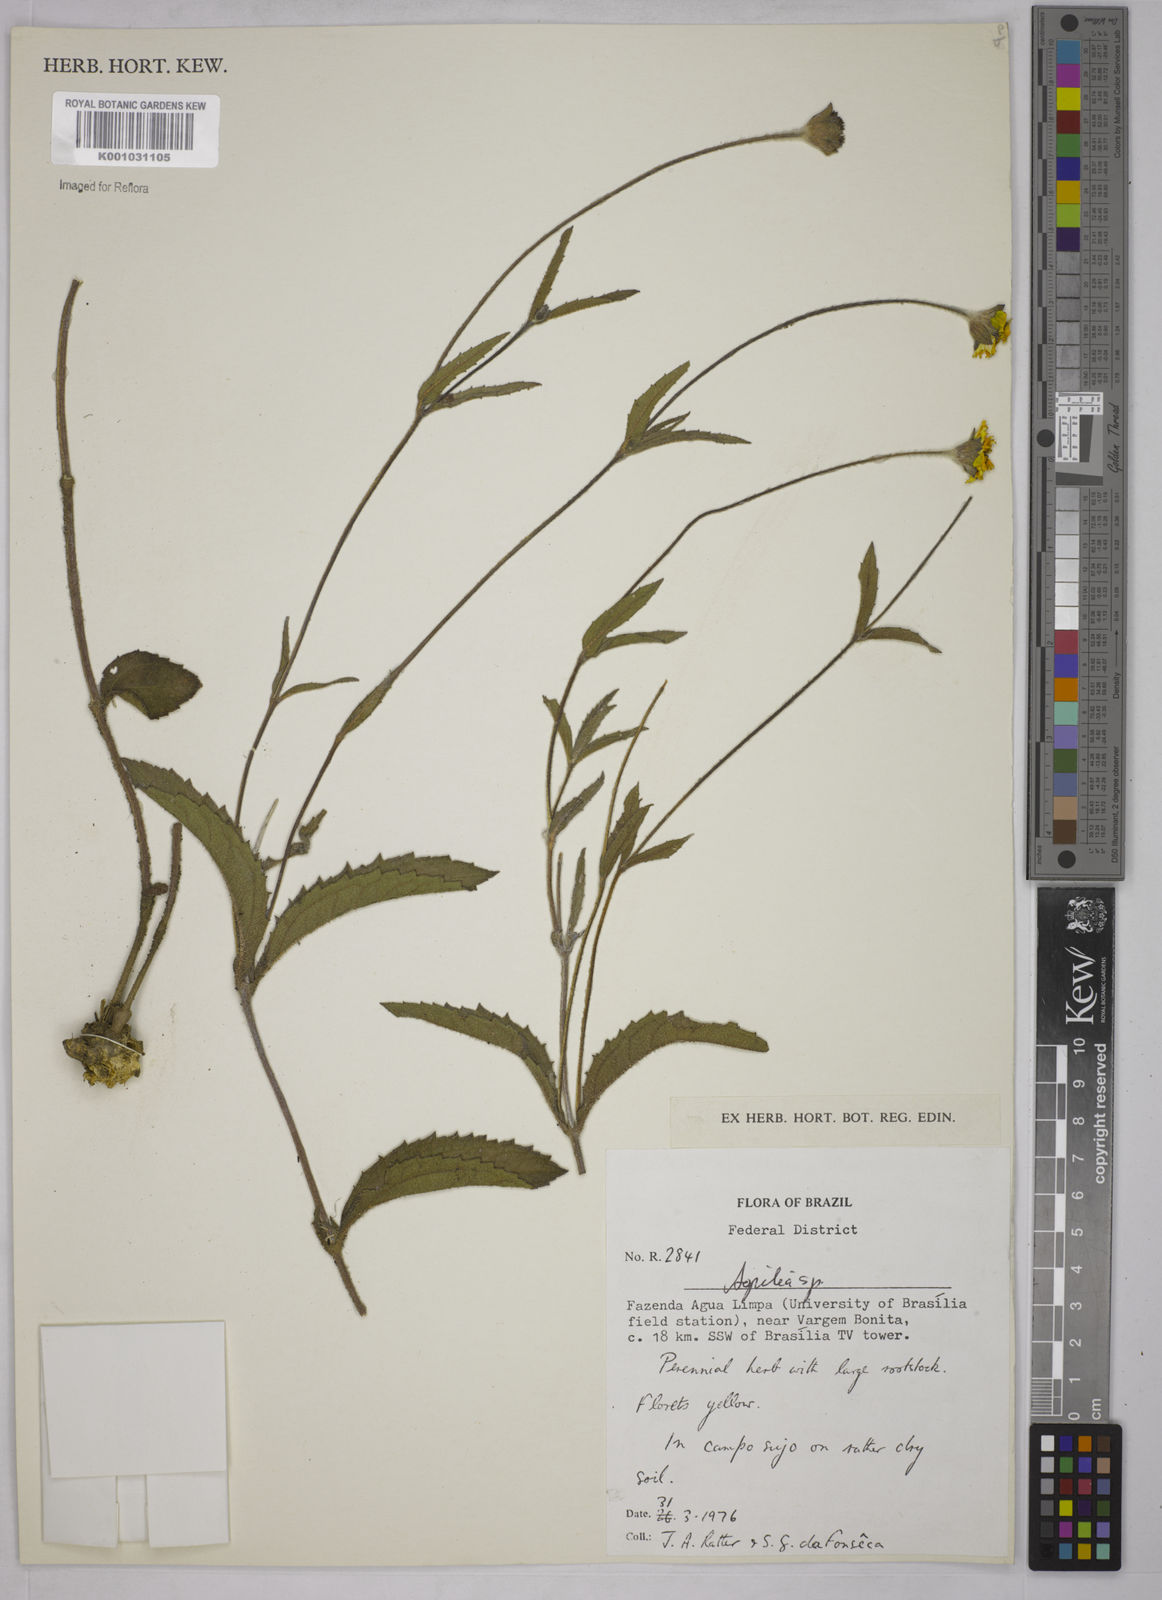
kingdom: Plantae
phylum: Tracheophyta
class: Magnoliopsida
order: Asterales
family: Asteraceae
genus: Aspilia
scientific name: Aspilia
